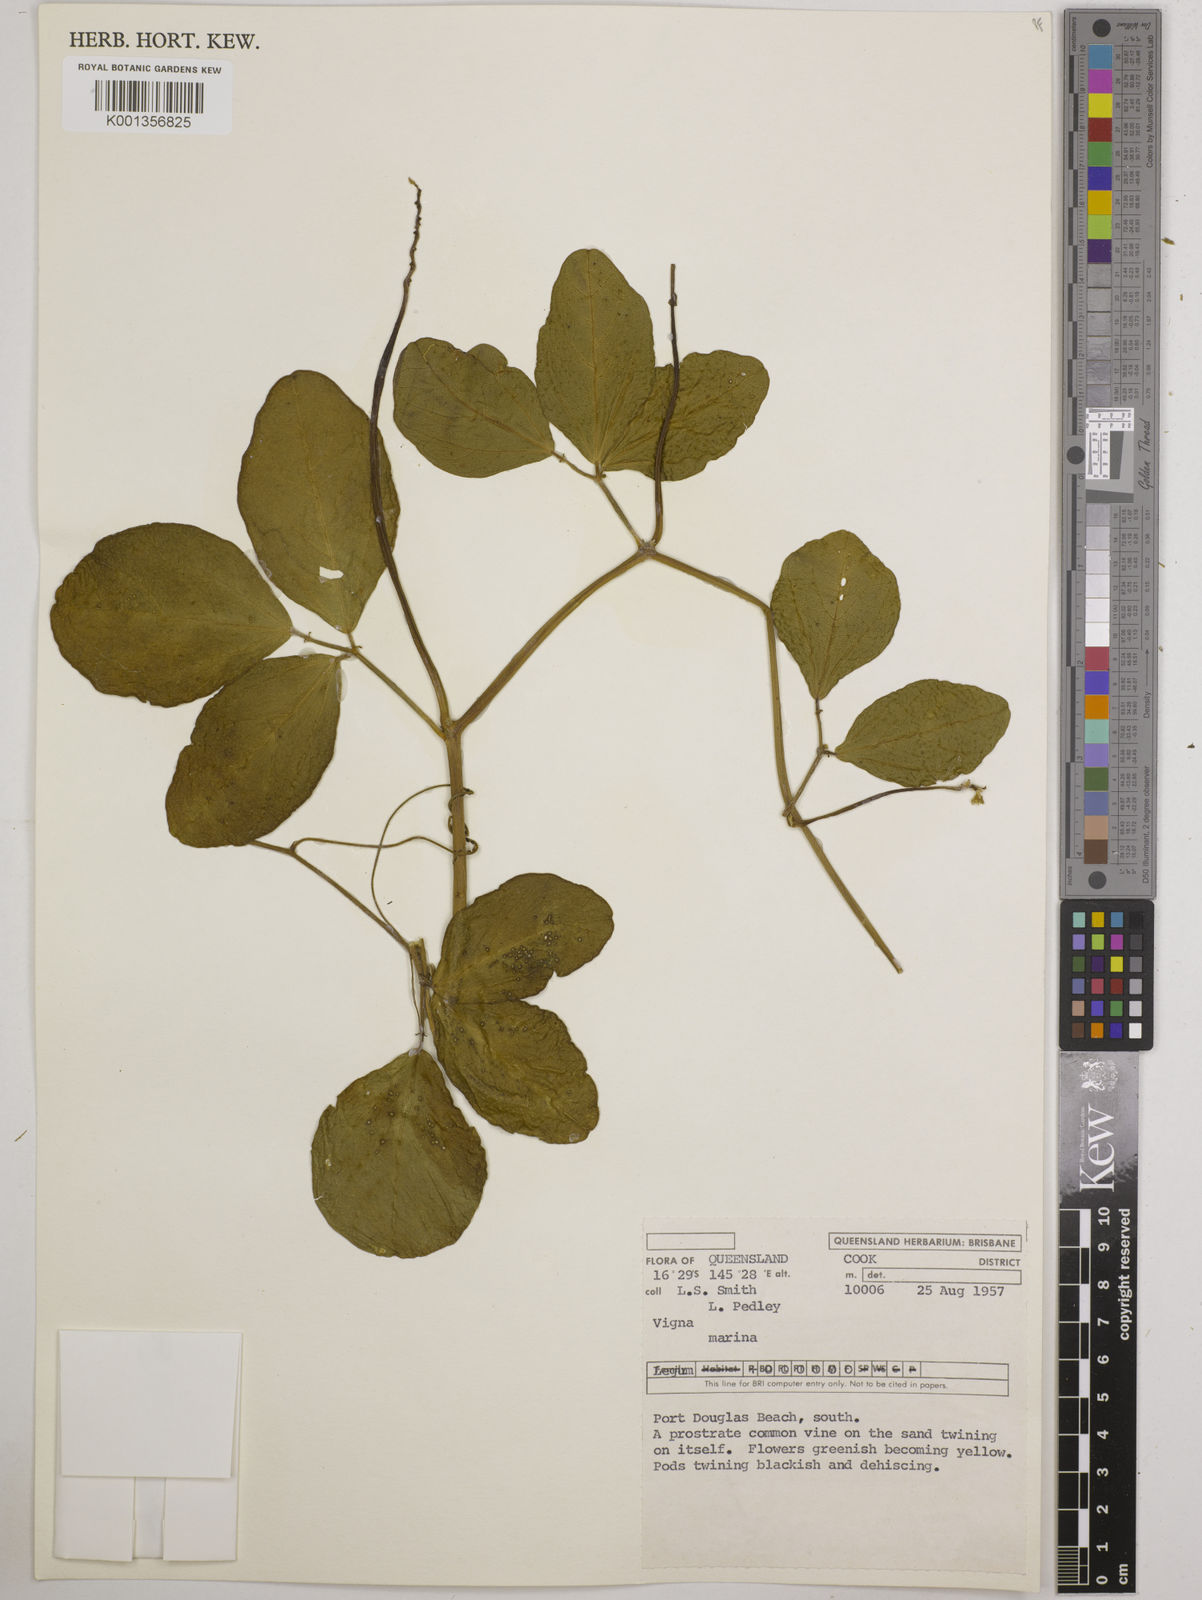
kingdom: Plantae
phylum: Tracheophyta
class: Magnoliopsida
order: Fabales
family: Fabaceae
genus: Vigna
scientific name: Vigna marina
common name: Dune-bean
